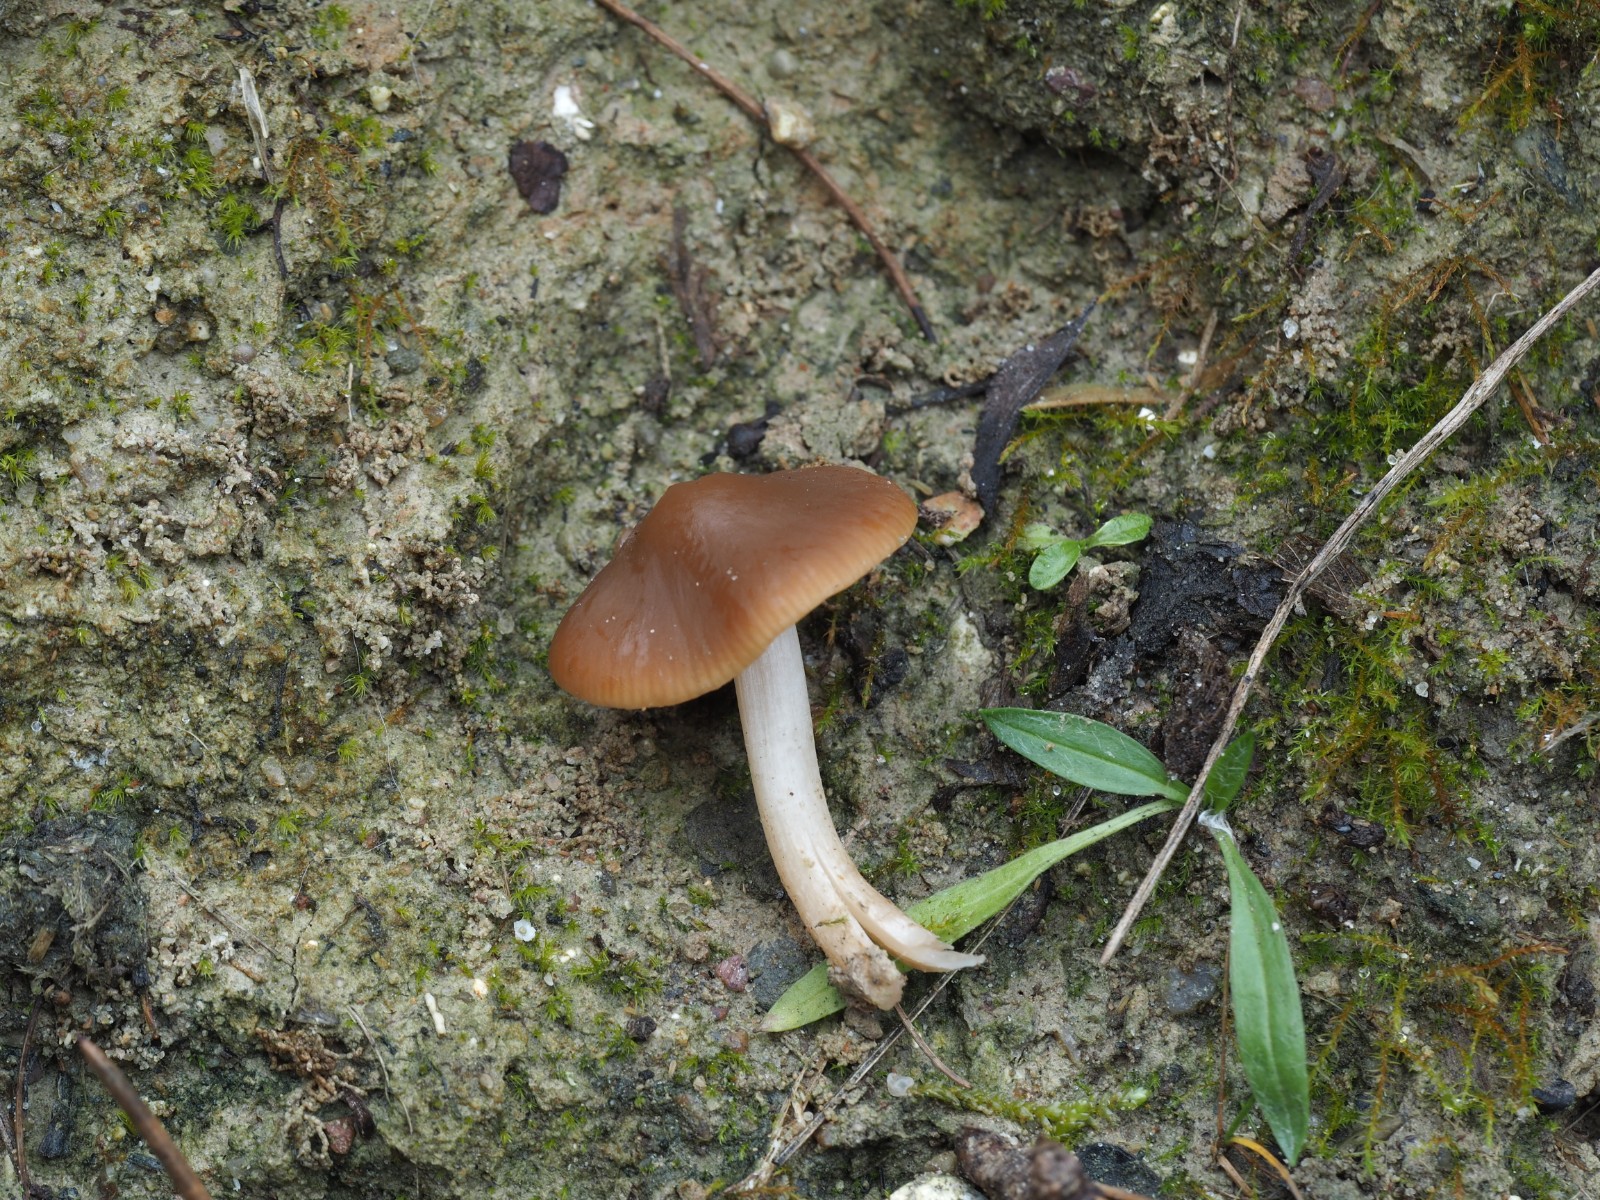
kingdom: Fungi
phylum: Basidiomycota
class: Agaricomycetes
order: Agaricales
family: Psathyrellaceae
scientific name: Psathyrellaceae
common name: mørkhatfamilien
